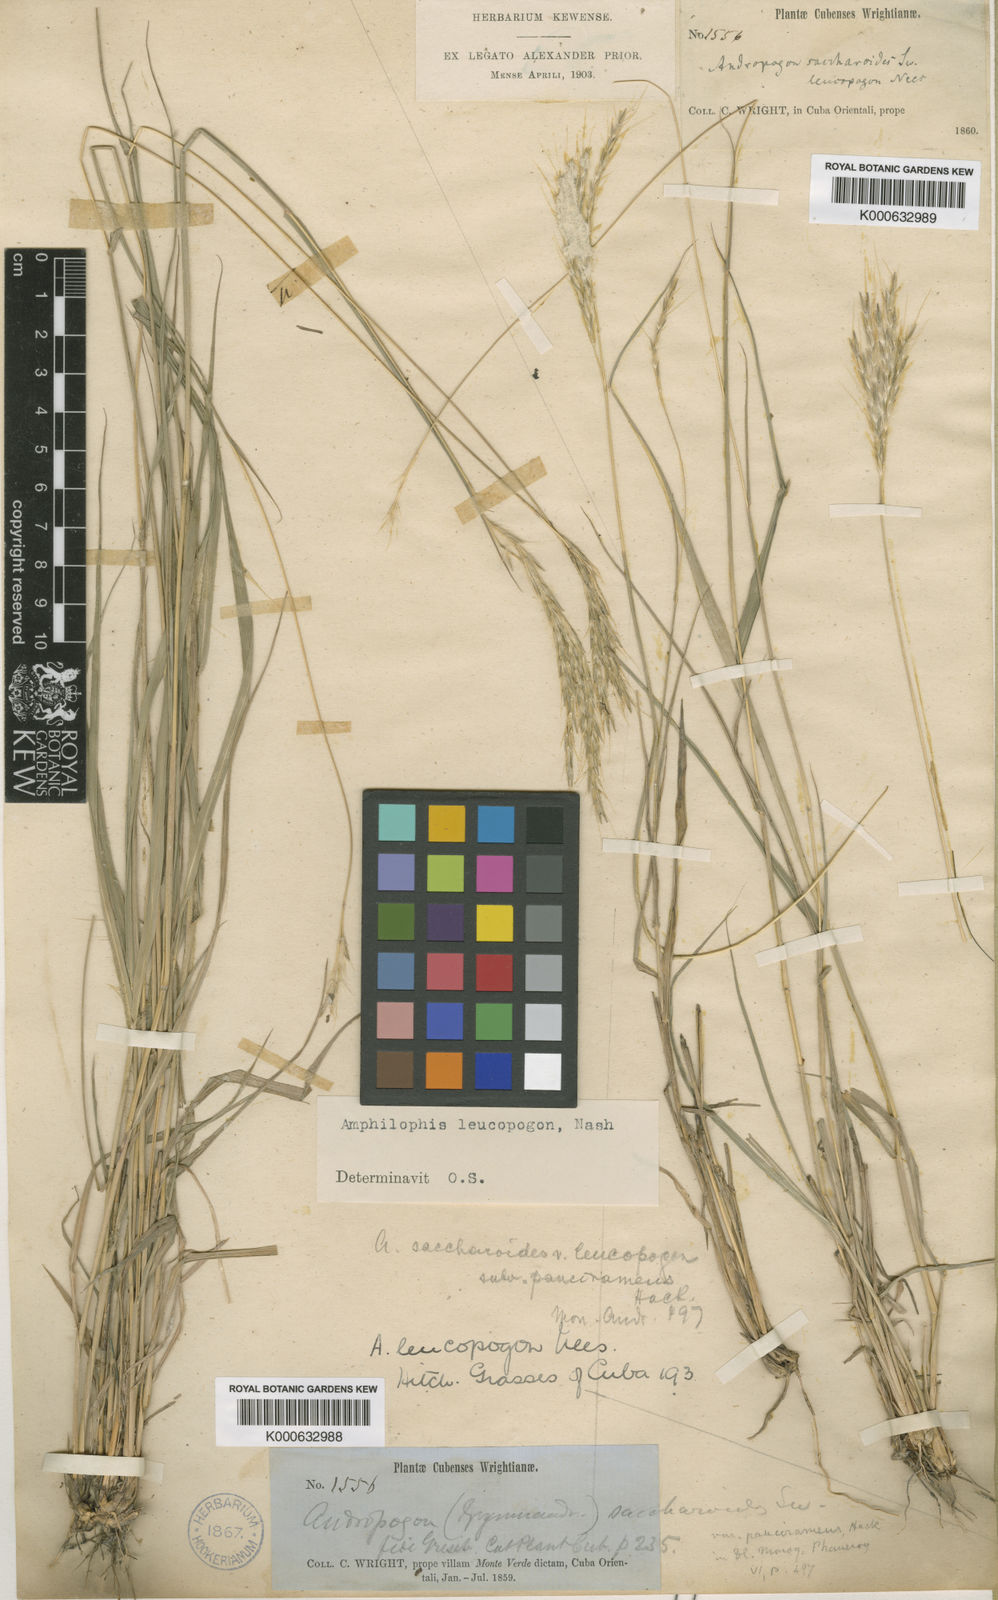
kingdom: Plantae
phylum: Tracheophyta
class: Liliopsida
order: Poales
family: Poaceae
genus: Bothriochloa
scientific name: Bothriochloa saccharoides
